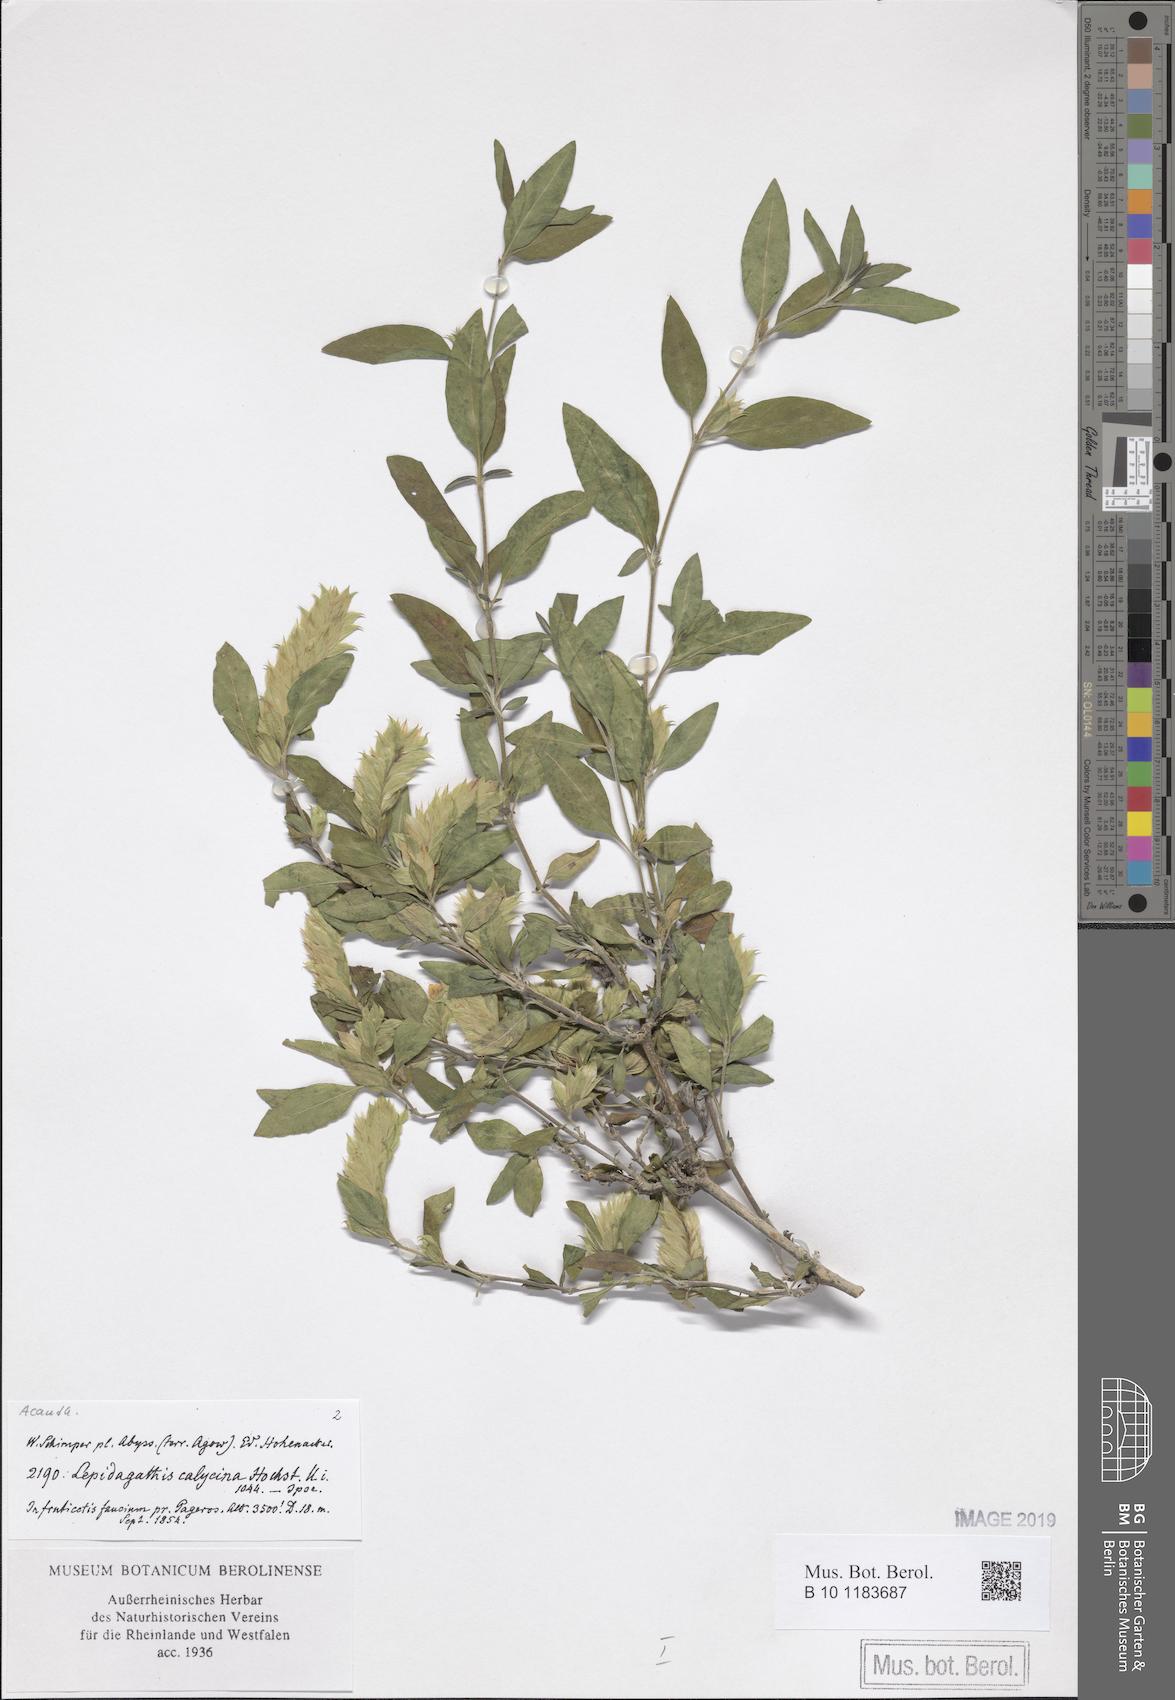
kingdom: Plantae
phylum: Tracheophyta
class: Magnoliopsida
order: Lamiales
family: Acanthaceae
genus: Lepidagathis
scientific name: Lepidagathis calycina
